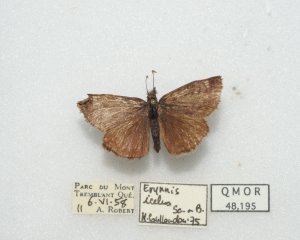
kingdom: Animalia
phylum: Arthropoda
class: Insecta
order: Lepidoptera
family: Hesperiidae
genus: Erynnis
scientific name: Erynnis icelus
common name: Dreamy Duskywing
